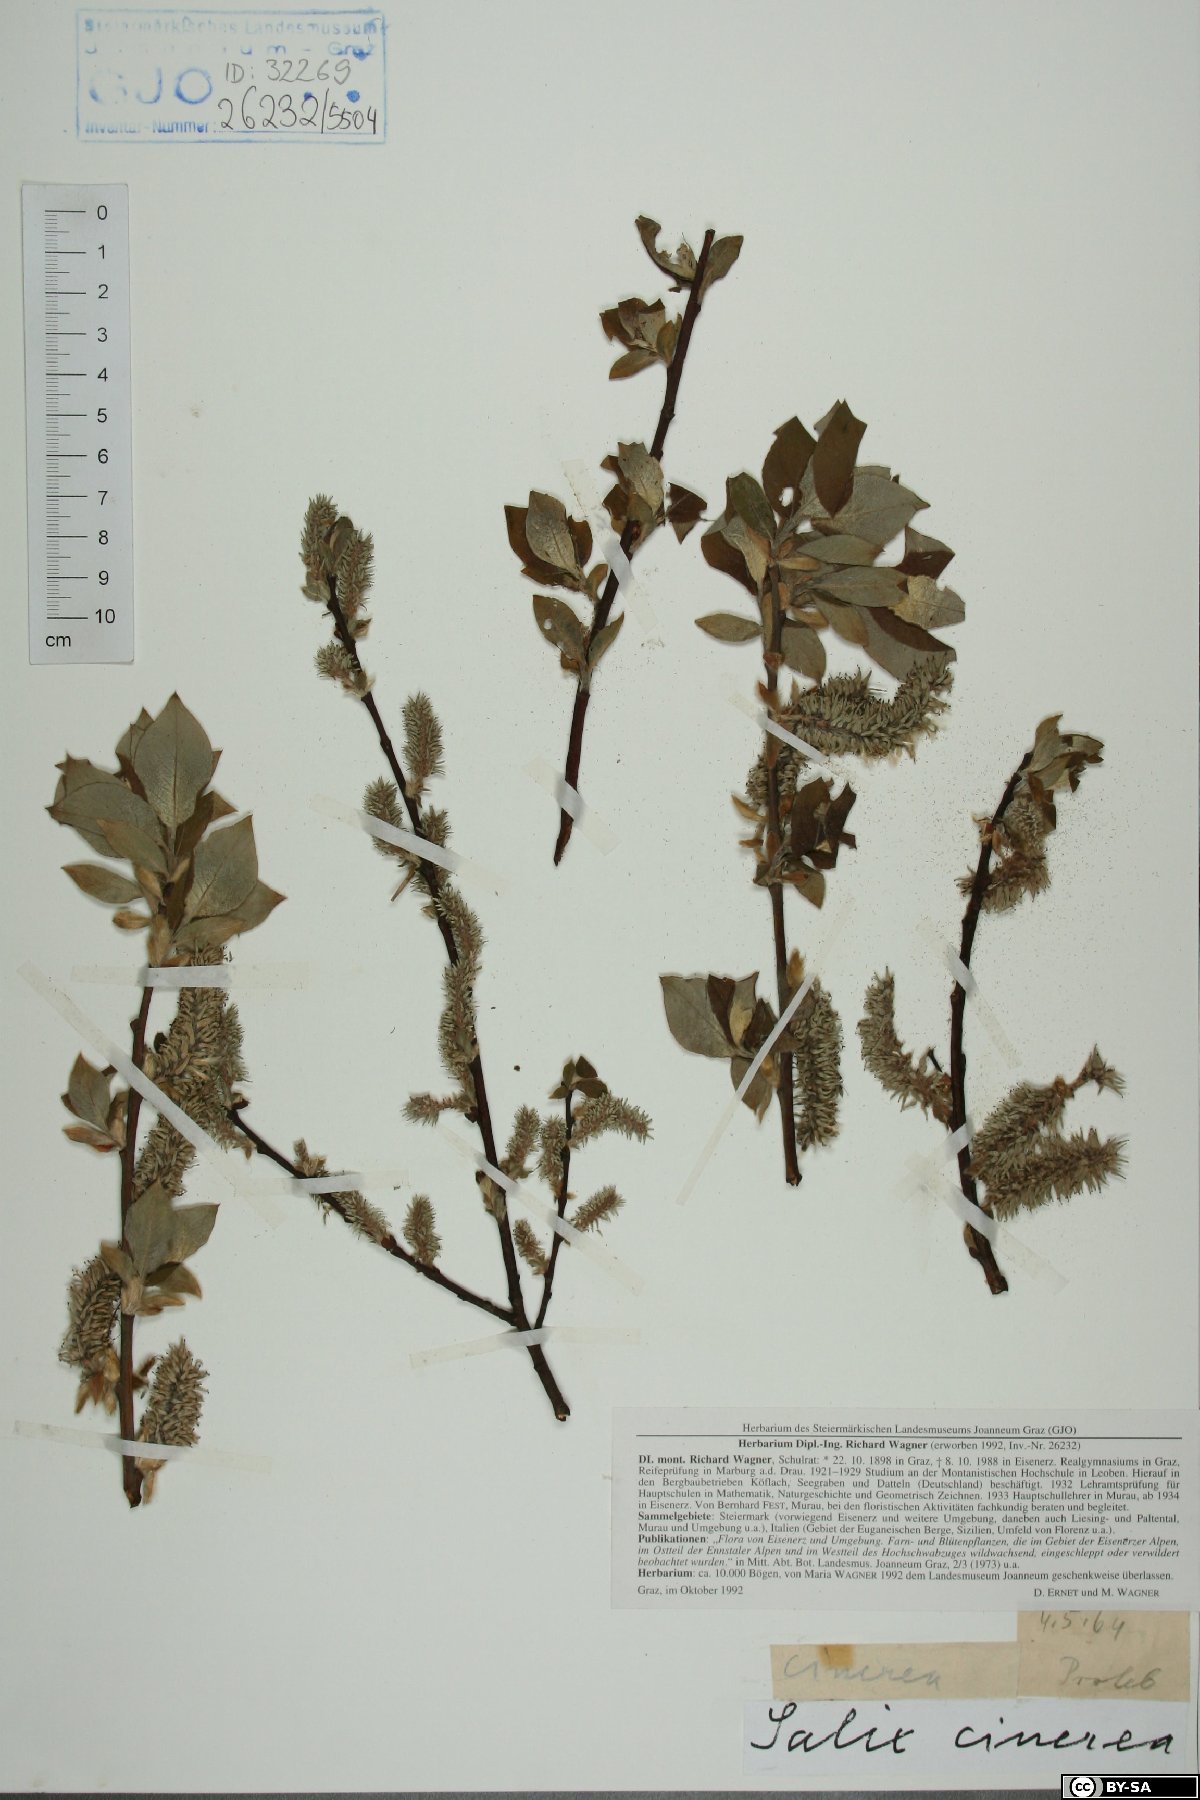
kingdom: Plantae
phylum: Tracheophyta
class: Magnoliopsida
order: Malpighiales
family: Salicaceae
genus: Salix
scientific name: Salix cinerea
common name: Common sallow
